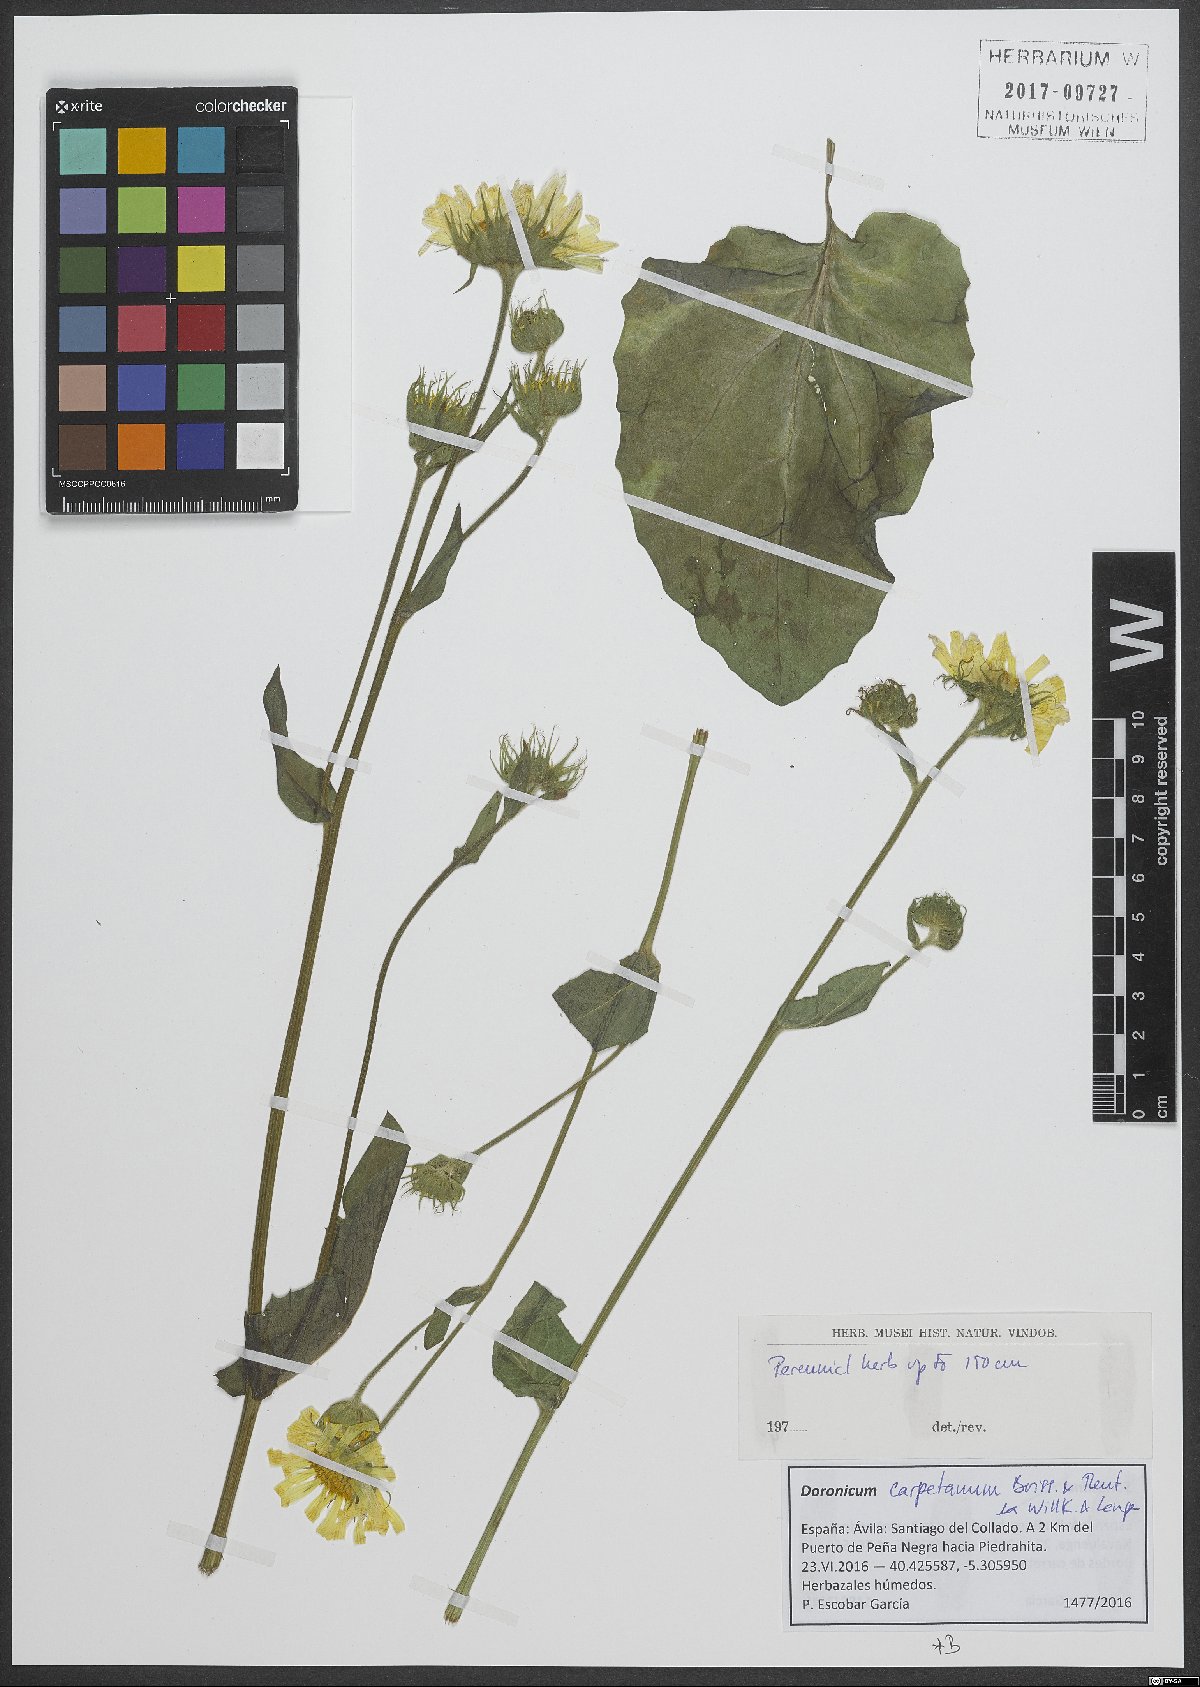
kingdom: Plantae
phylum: Tracheophyta
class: Magnoliopsida
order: Asterales
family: Asteraceae
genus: Doronicum
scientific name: Doronicum carpetanum
